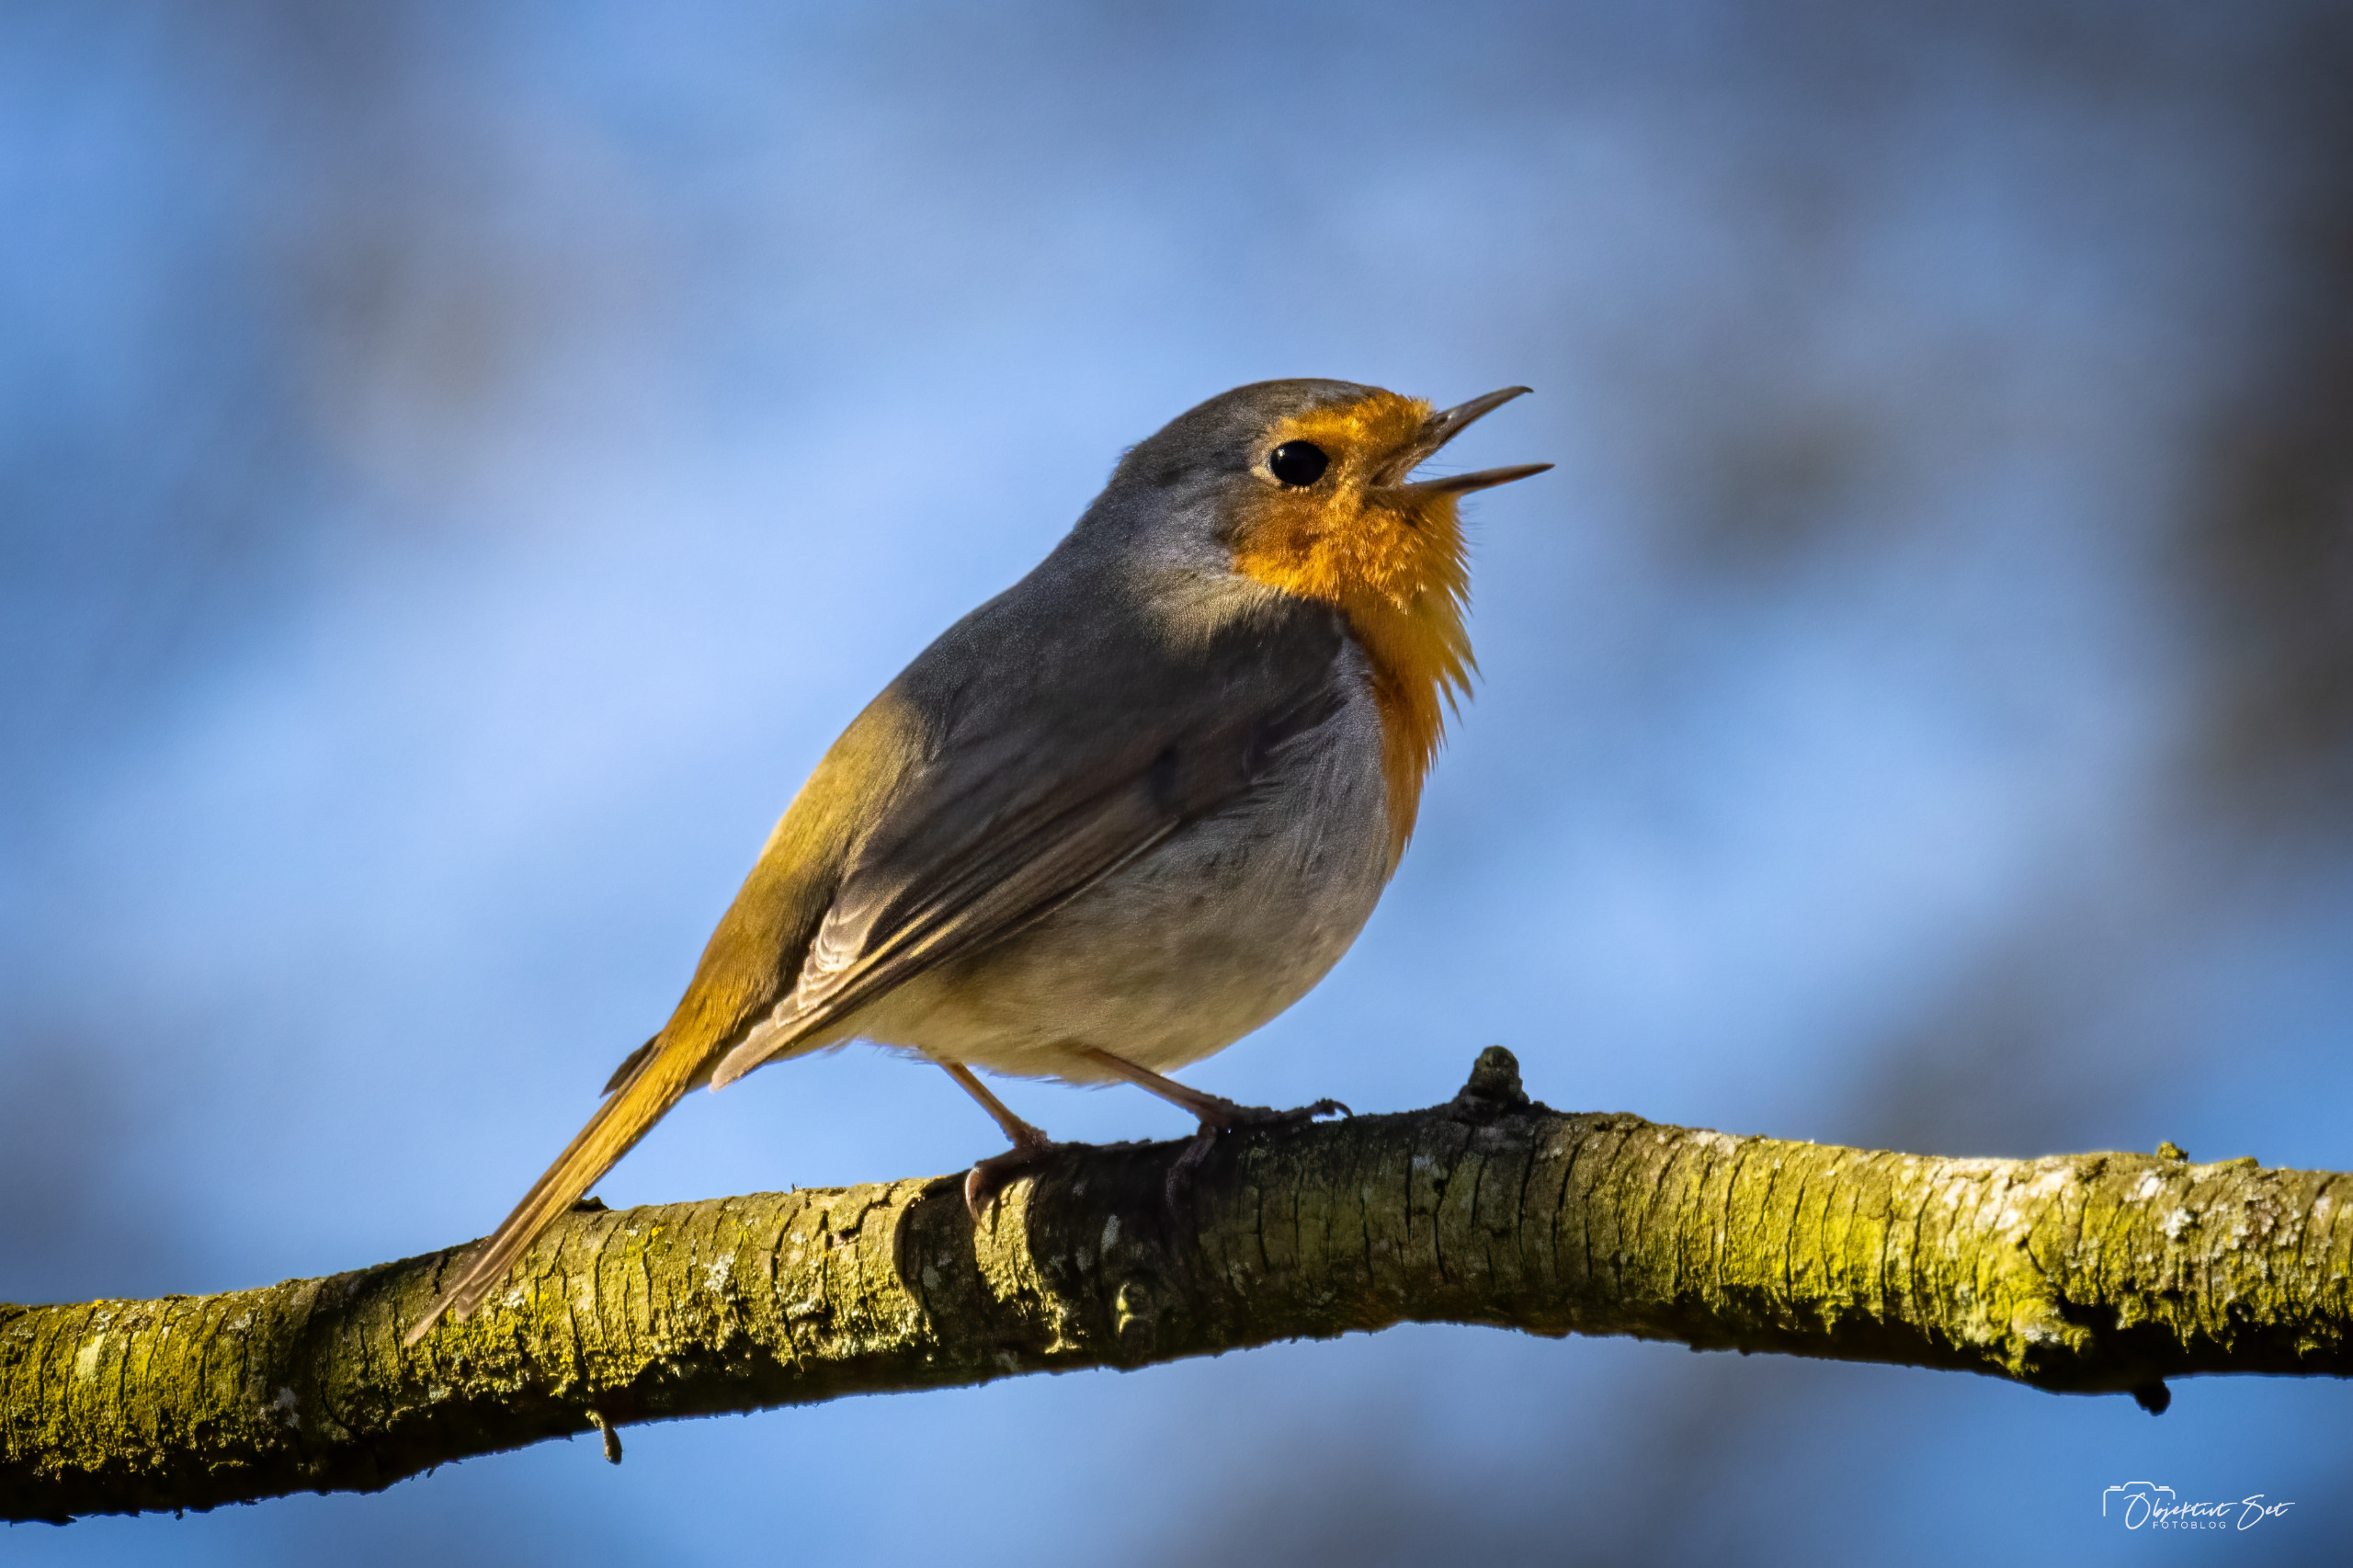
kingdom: Animalia
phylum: Chordata
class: Aves
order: Passeriformes
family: Muscicapidae
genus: Erithacus
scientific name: Erithacus rubecula
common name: Rødhals/rødkælk
